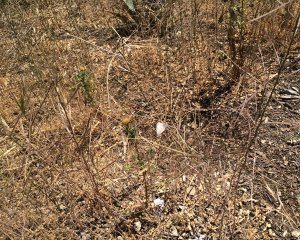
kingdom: Animalia
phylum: Arthropoda
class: Insecta
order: Lepidoptera
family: Lycaenidae
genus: Leptotes
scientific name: Leptotes marina
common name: Marine Blue
